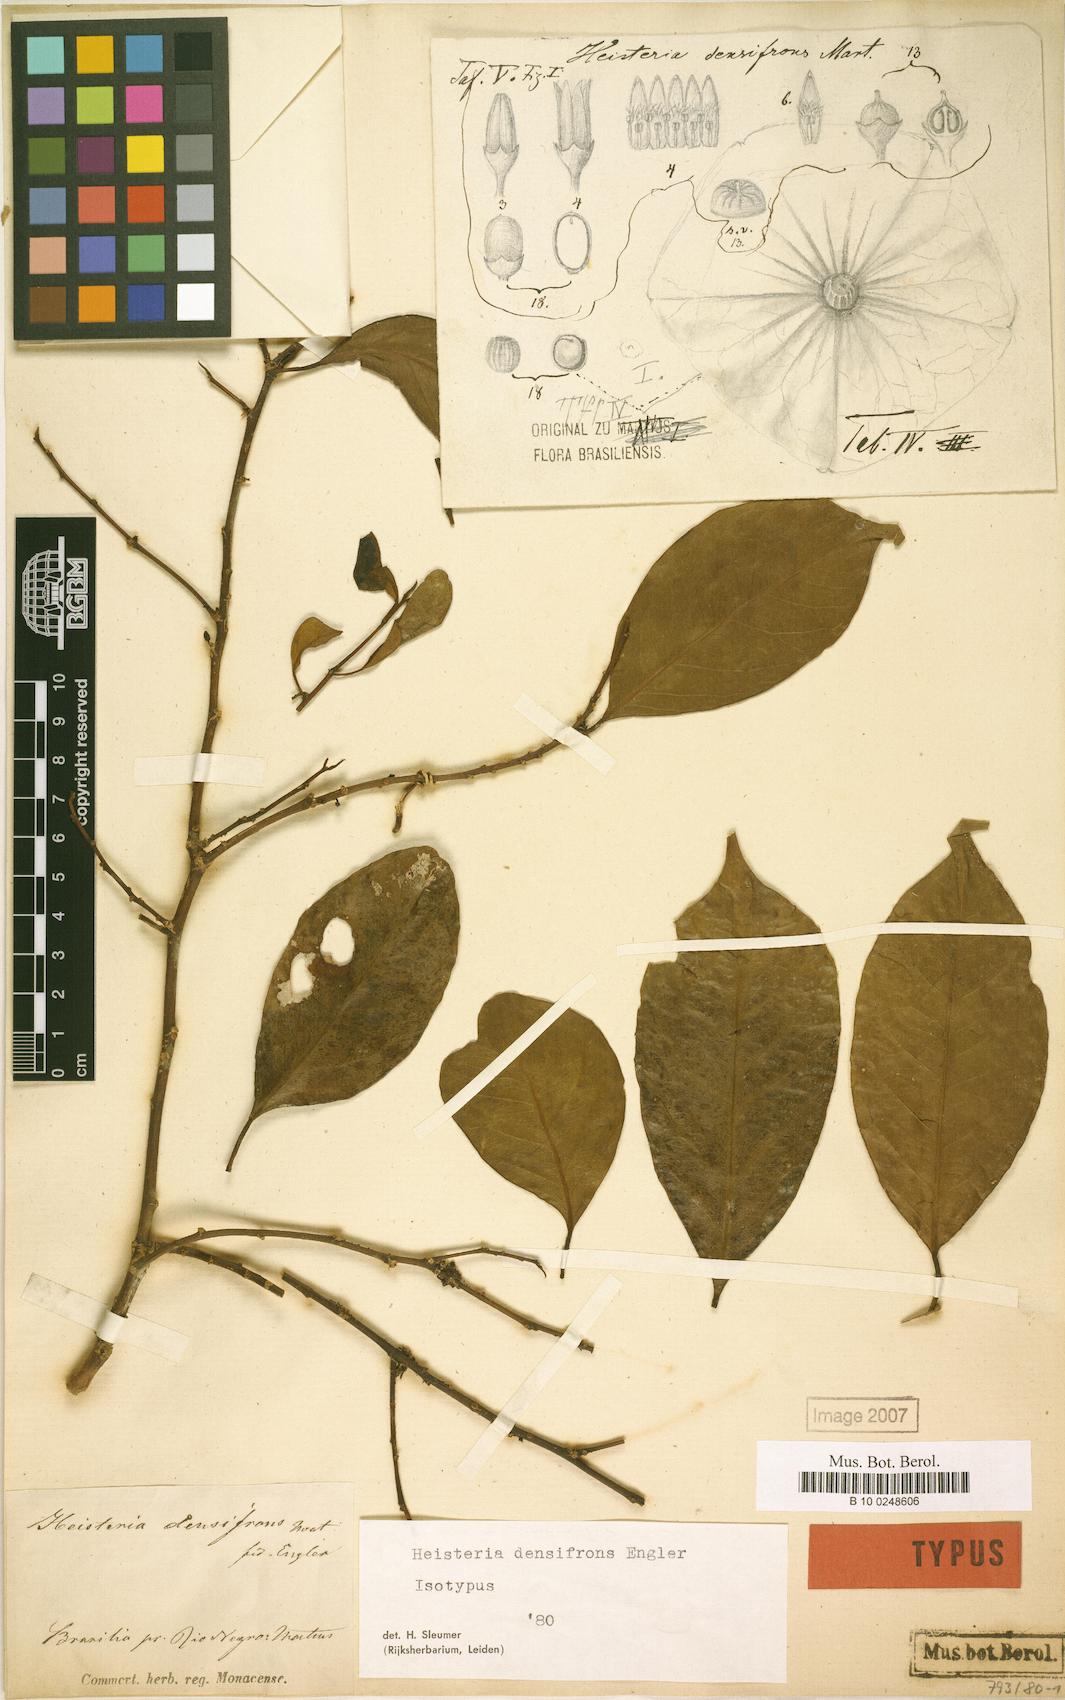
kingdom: Plantae
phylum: Tracheophyta
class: Magnoliopsida
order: Santalales
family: Erythropalaceae
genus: Heisteria
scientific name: Heisteria densifrons
